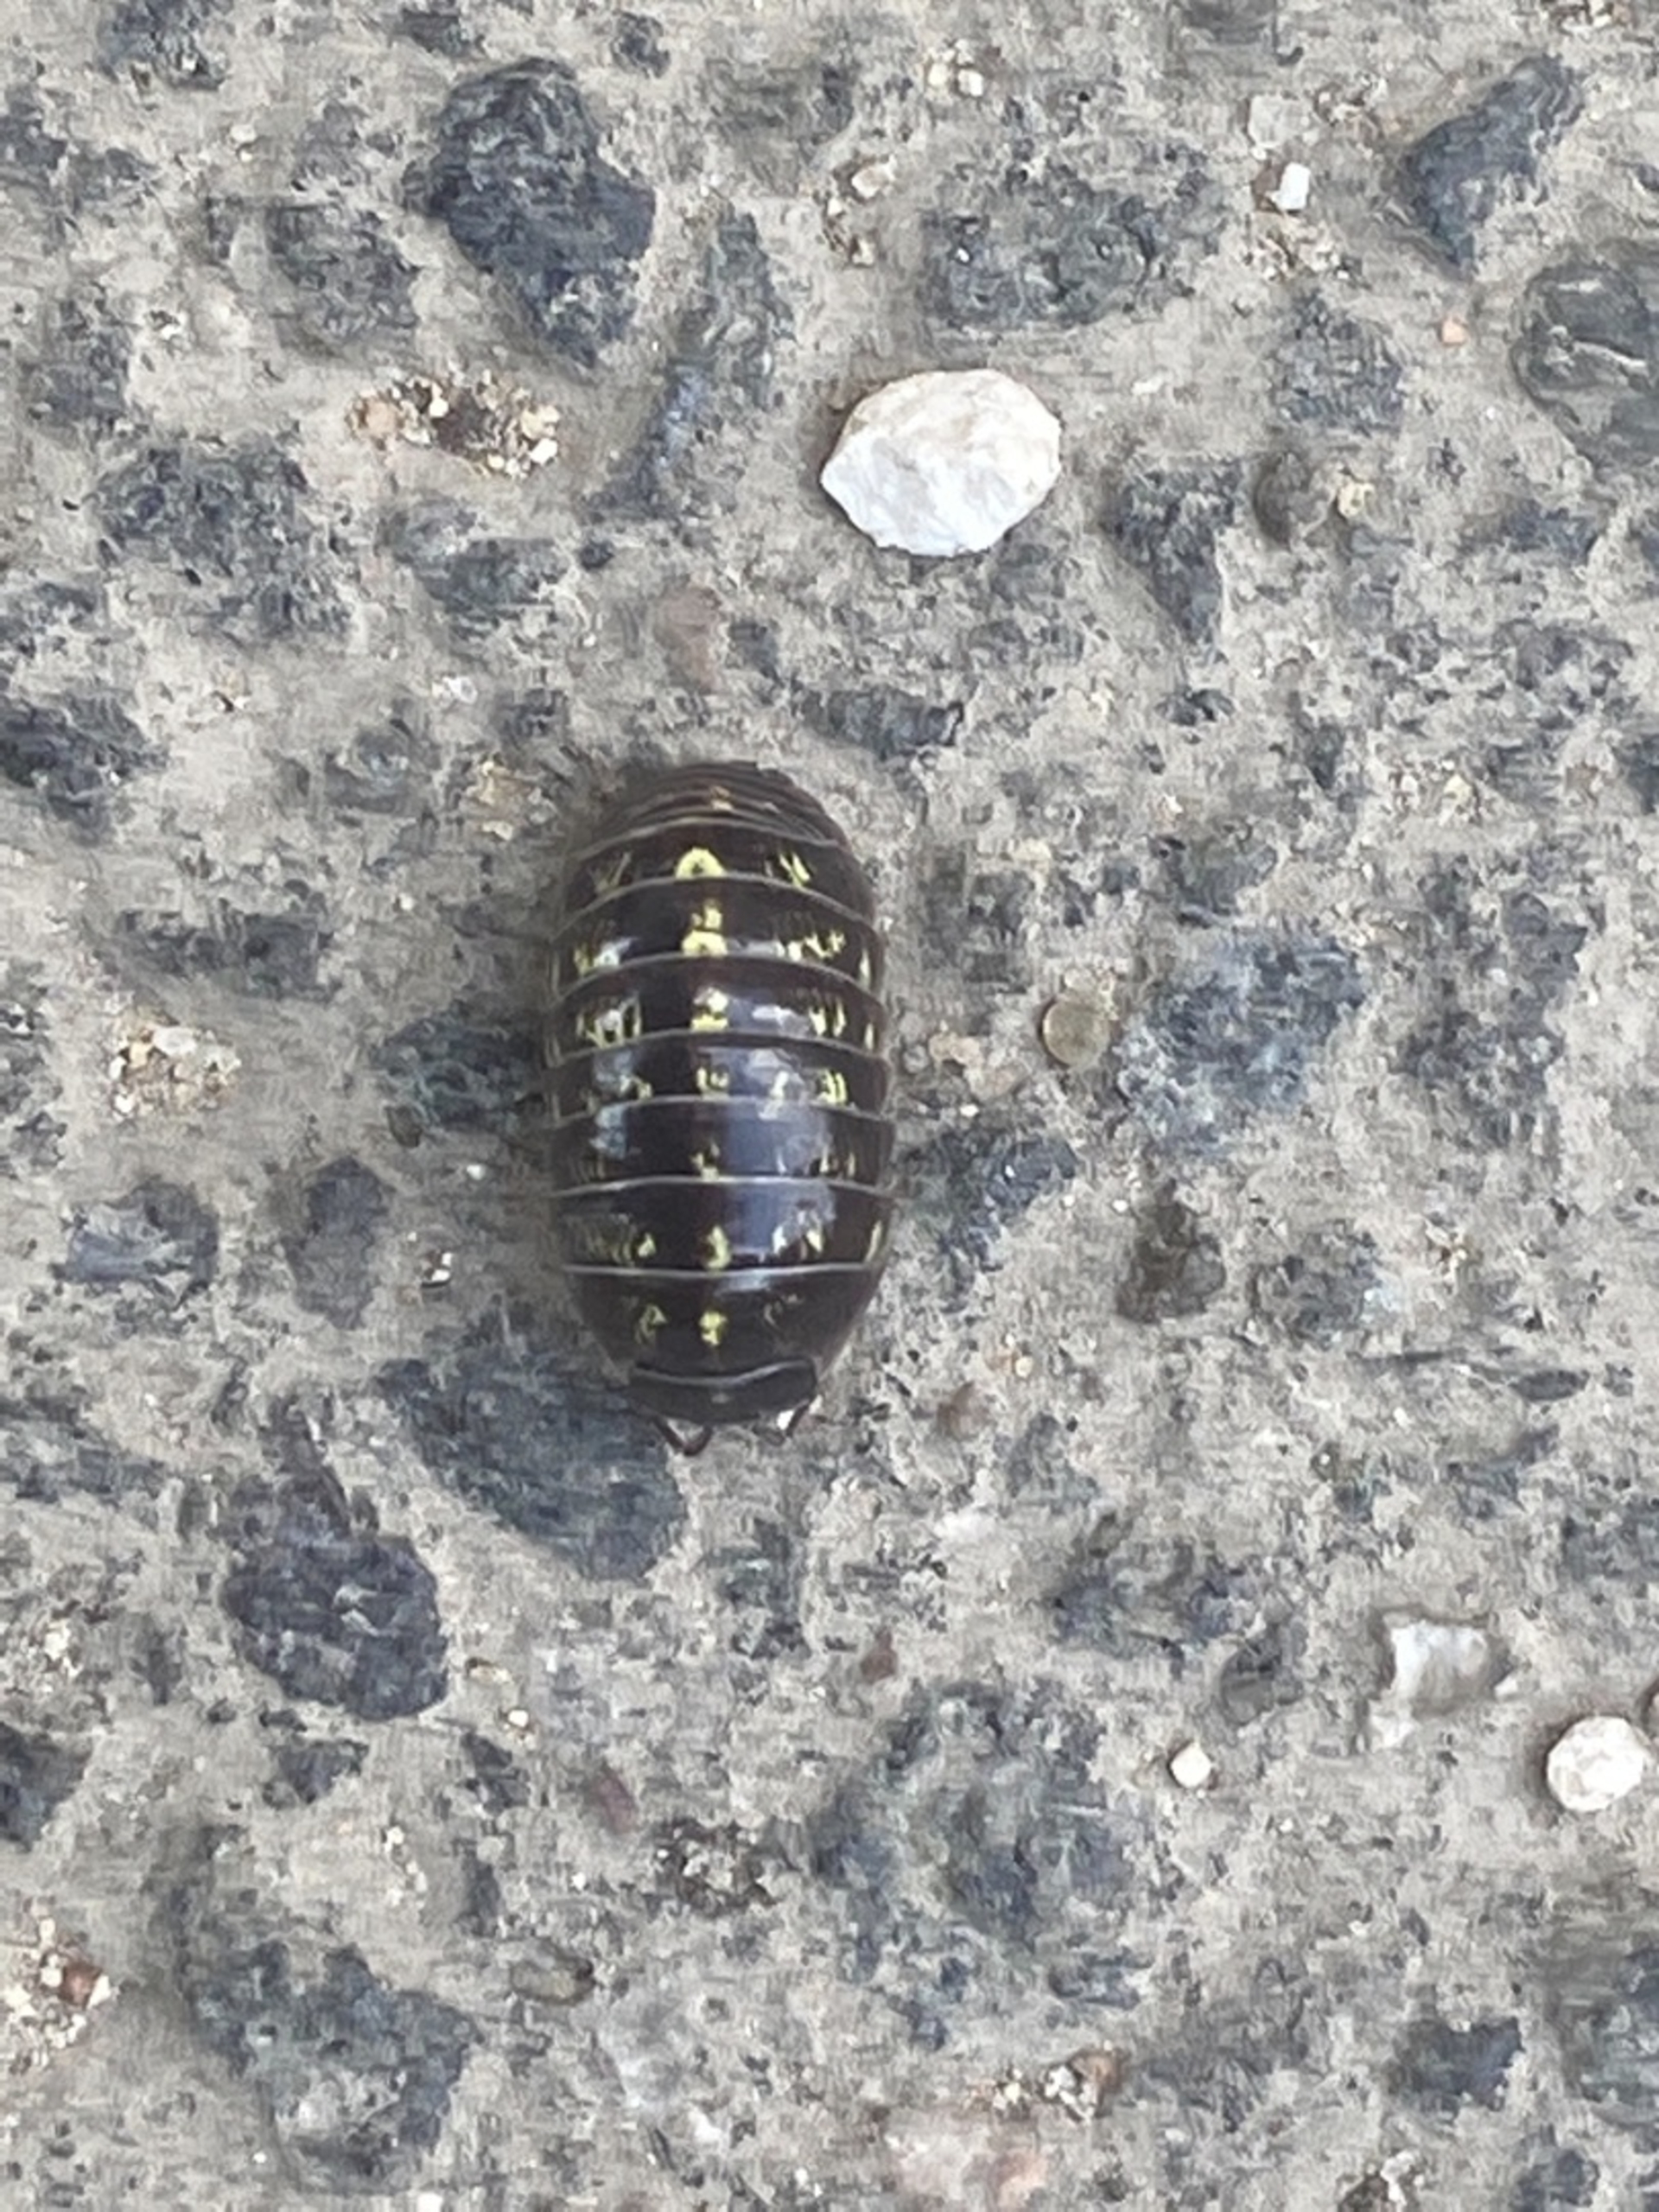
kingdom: Animalia
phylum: Arthropoda
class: Malacostraca
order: Isopoda
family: Armadillidiidae
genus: Armadillidium
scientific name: Armadillidium vulgare
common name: Almindelig kuglebænkebider
